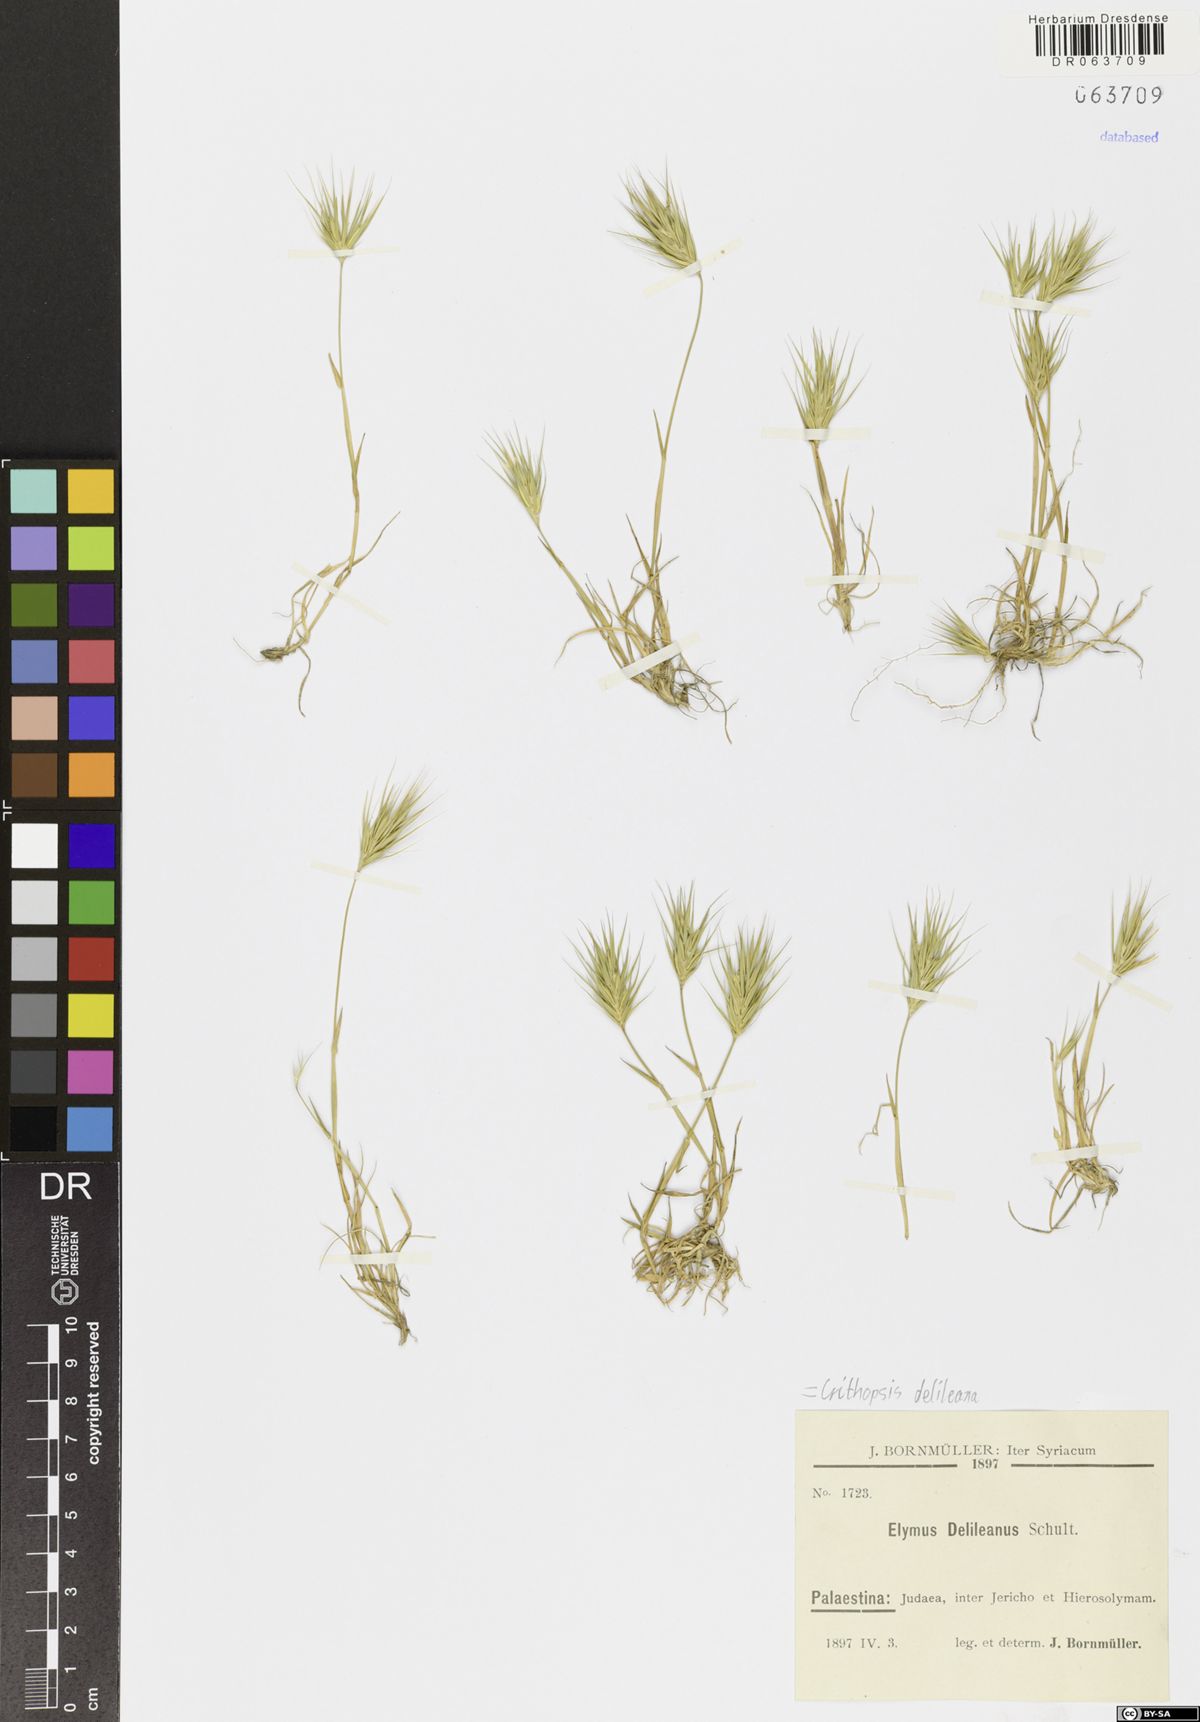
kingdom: Plantae
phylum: Tracheophyta
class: Liliopsida
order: Poales
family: Poaceae
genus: Crithopsis
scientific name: Crithopsis delileana
